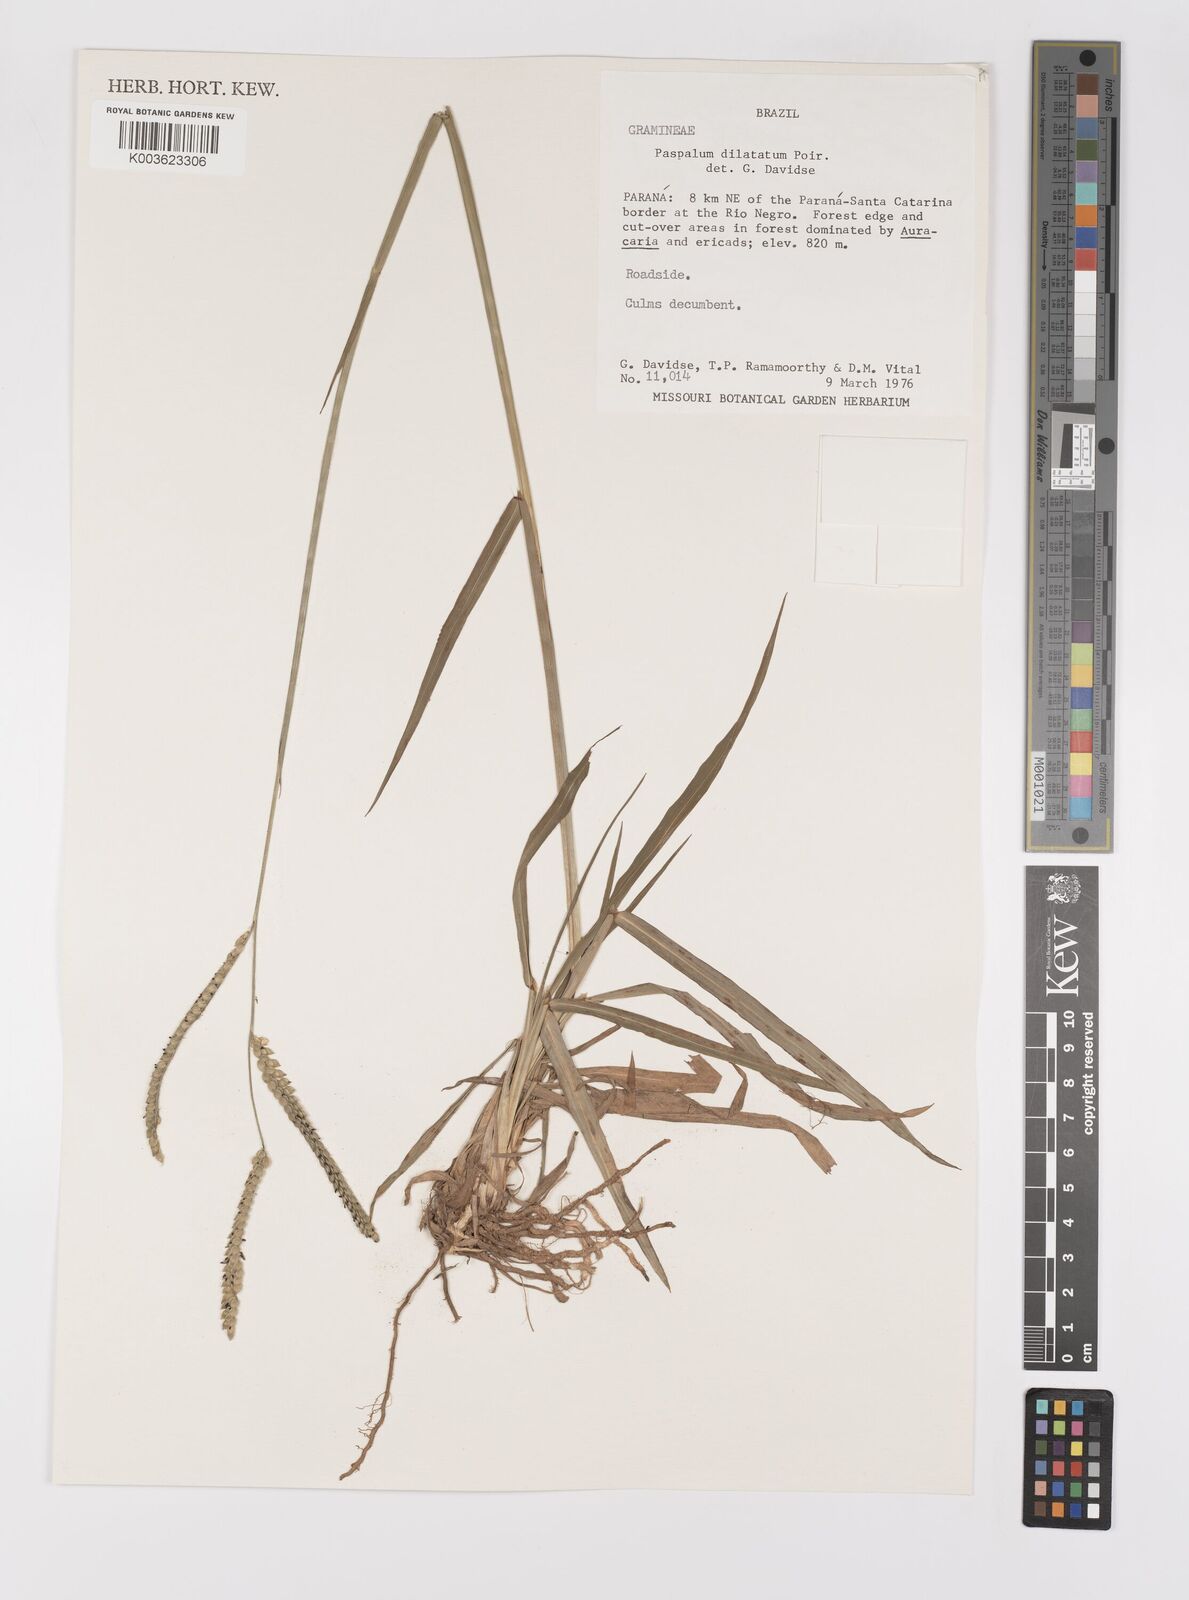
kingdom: Plantae
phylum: Tracheophyta
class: Liliopsida
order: Poales
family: Poaceae
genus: Paspalum
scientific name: Paspalum dilatatum
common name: Dallisgrass
